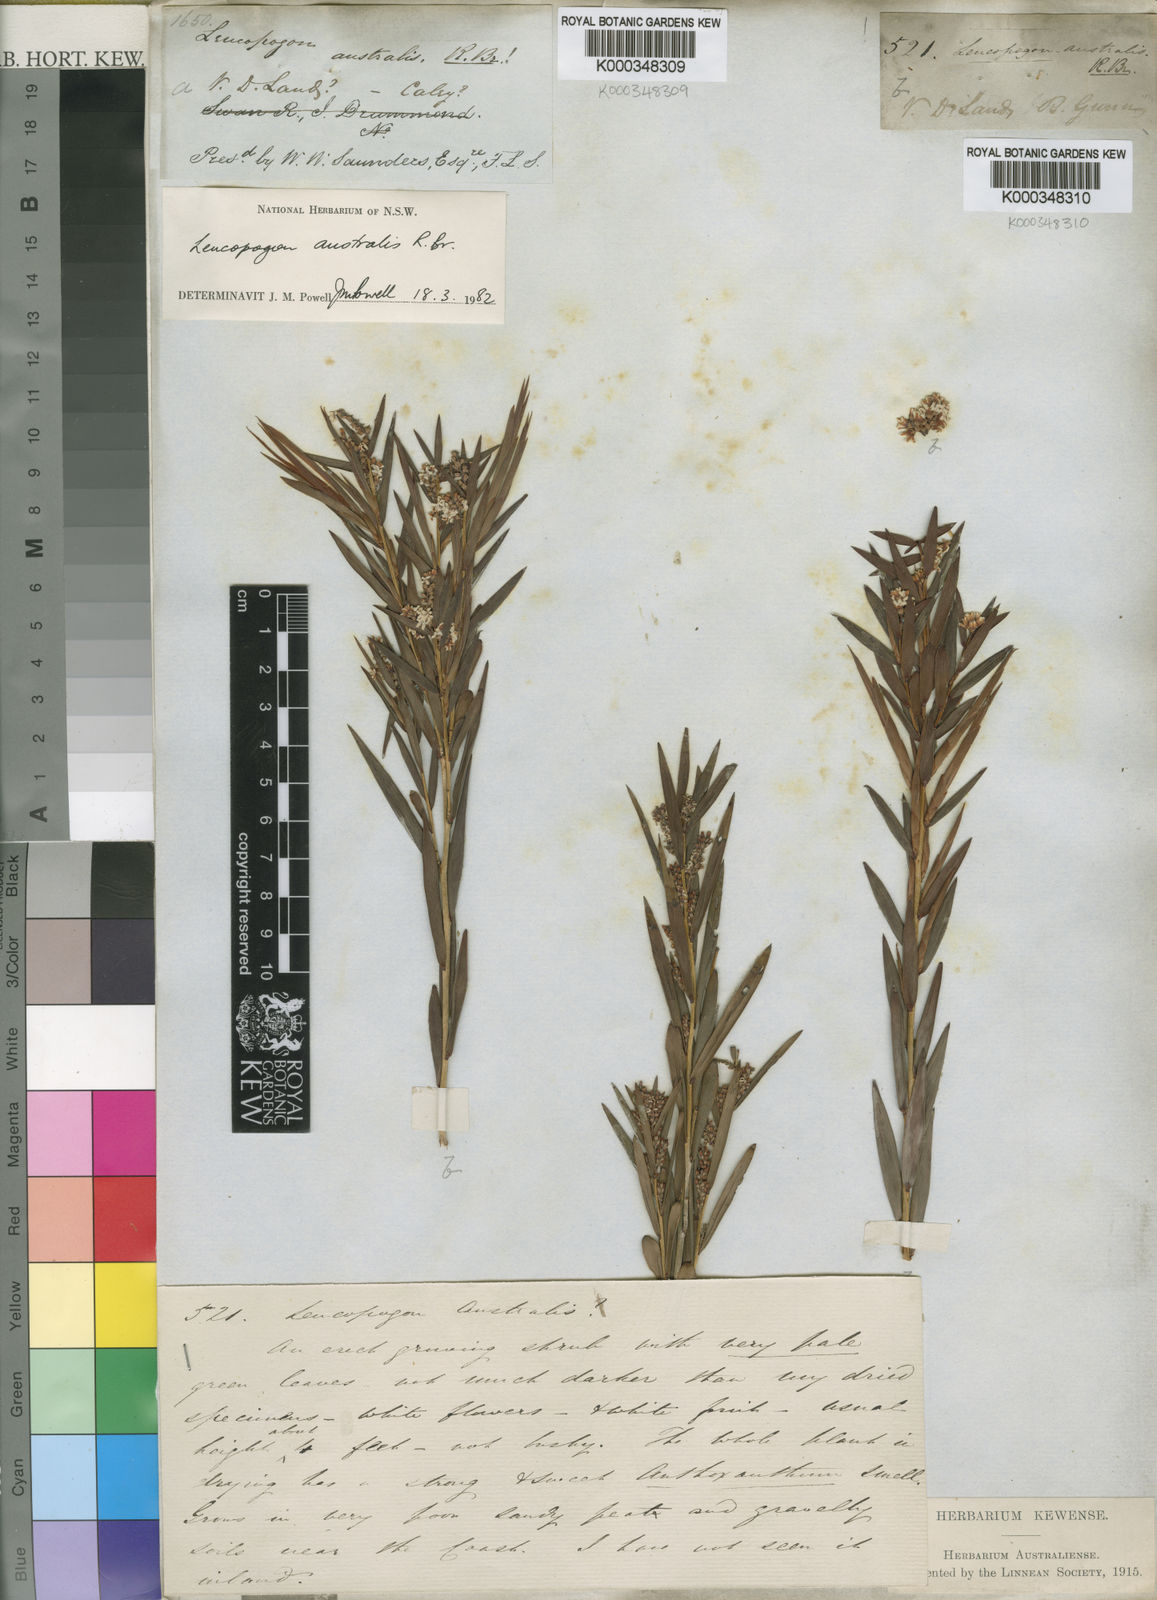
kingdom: Plantae
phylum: Tracheophyta
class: Magnoliopsida
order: Ericales
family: Ericaceae
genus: Leucopogon
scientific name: Leucopogon australis
